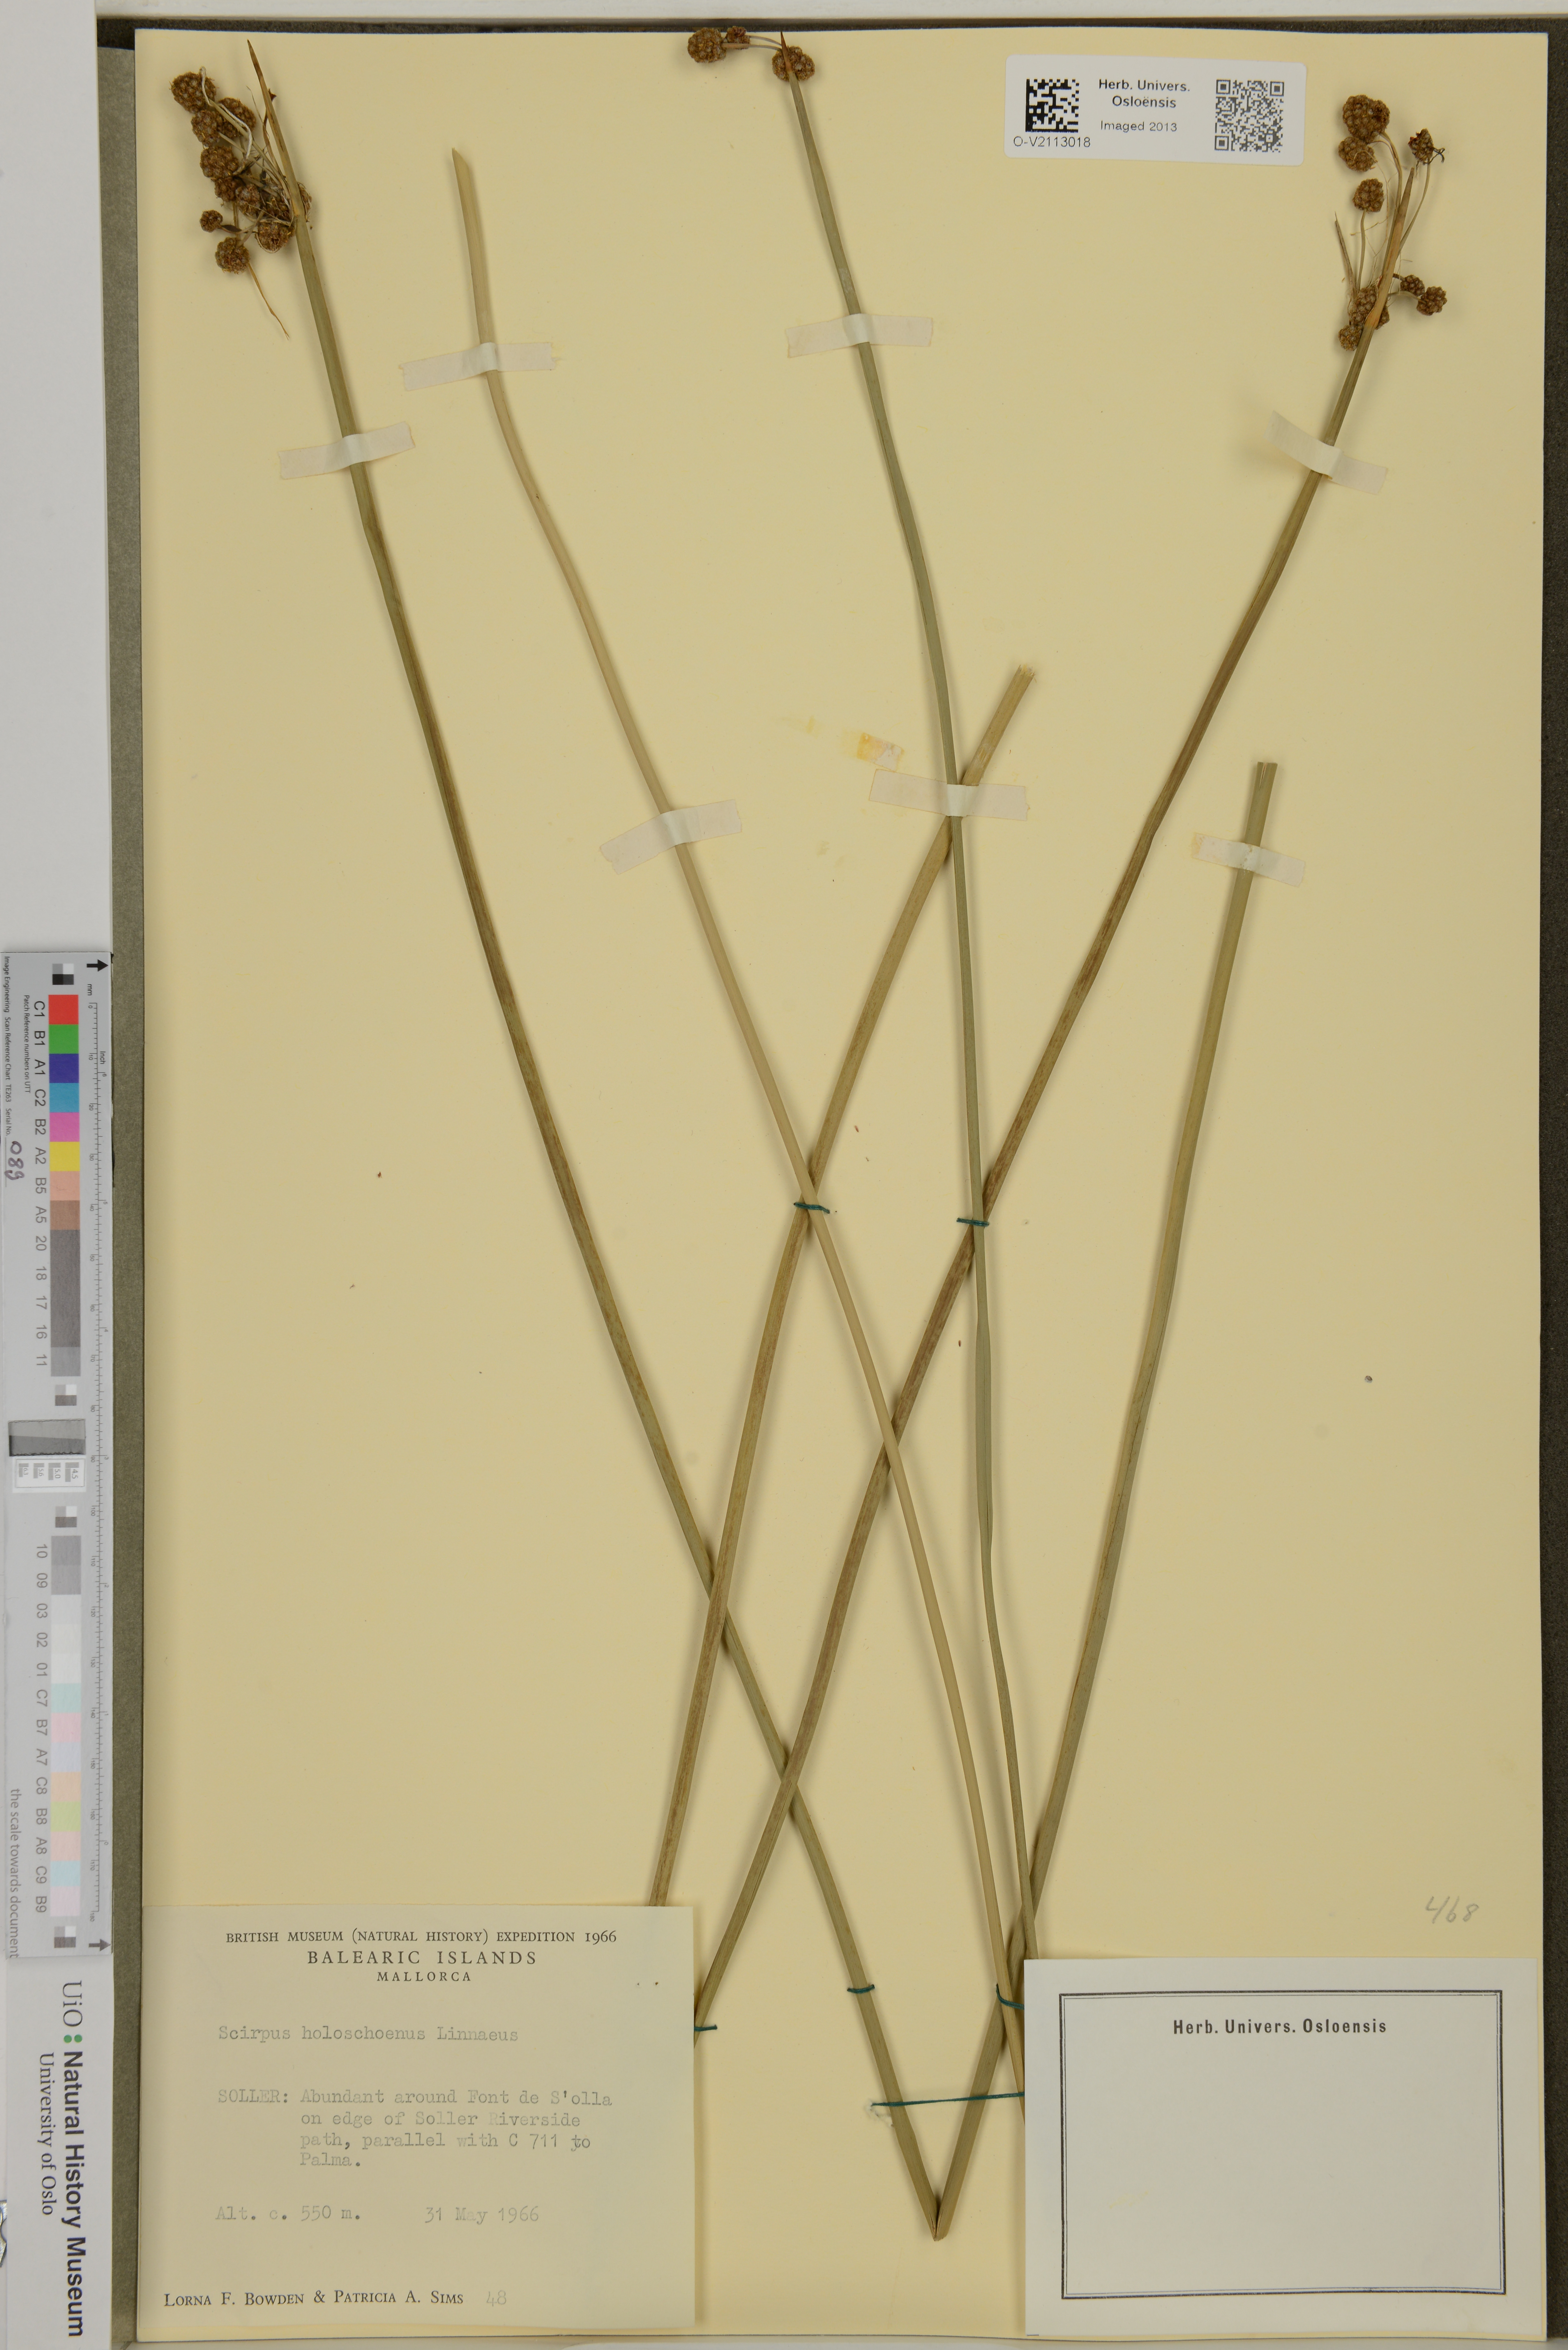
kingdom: Plantae
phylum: Tracheophyta
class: Liliopsida
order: Poales
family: Cyperaceae
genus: Scirpoides
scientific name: Scirpoides holoschoenus
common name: Round-headed club-rush
